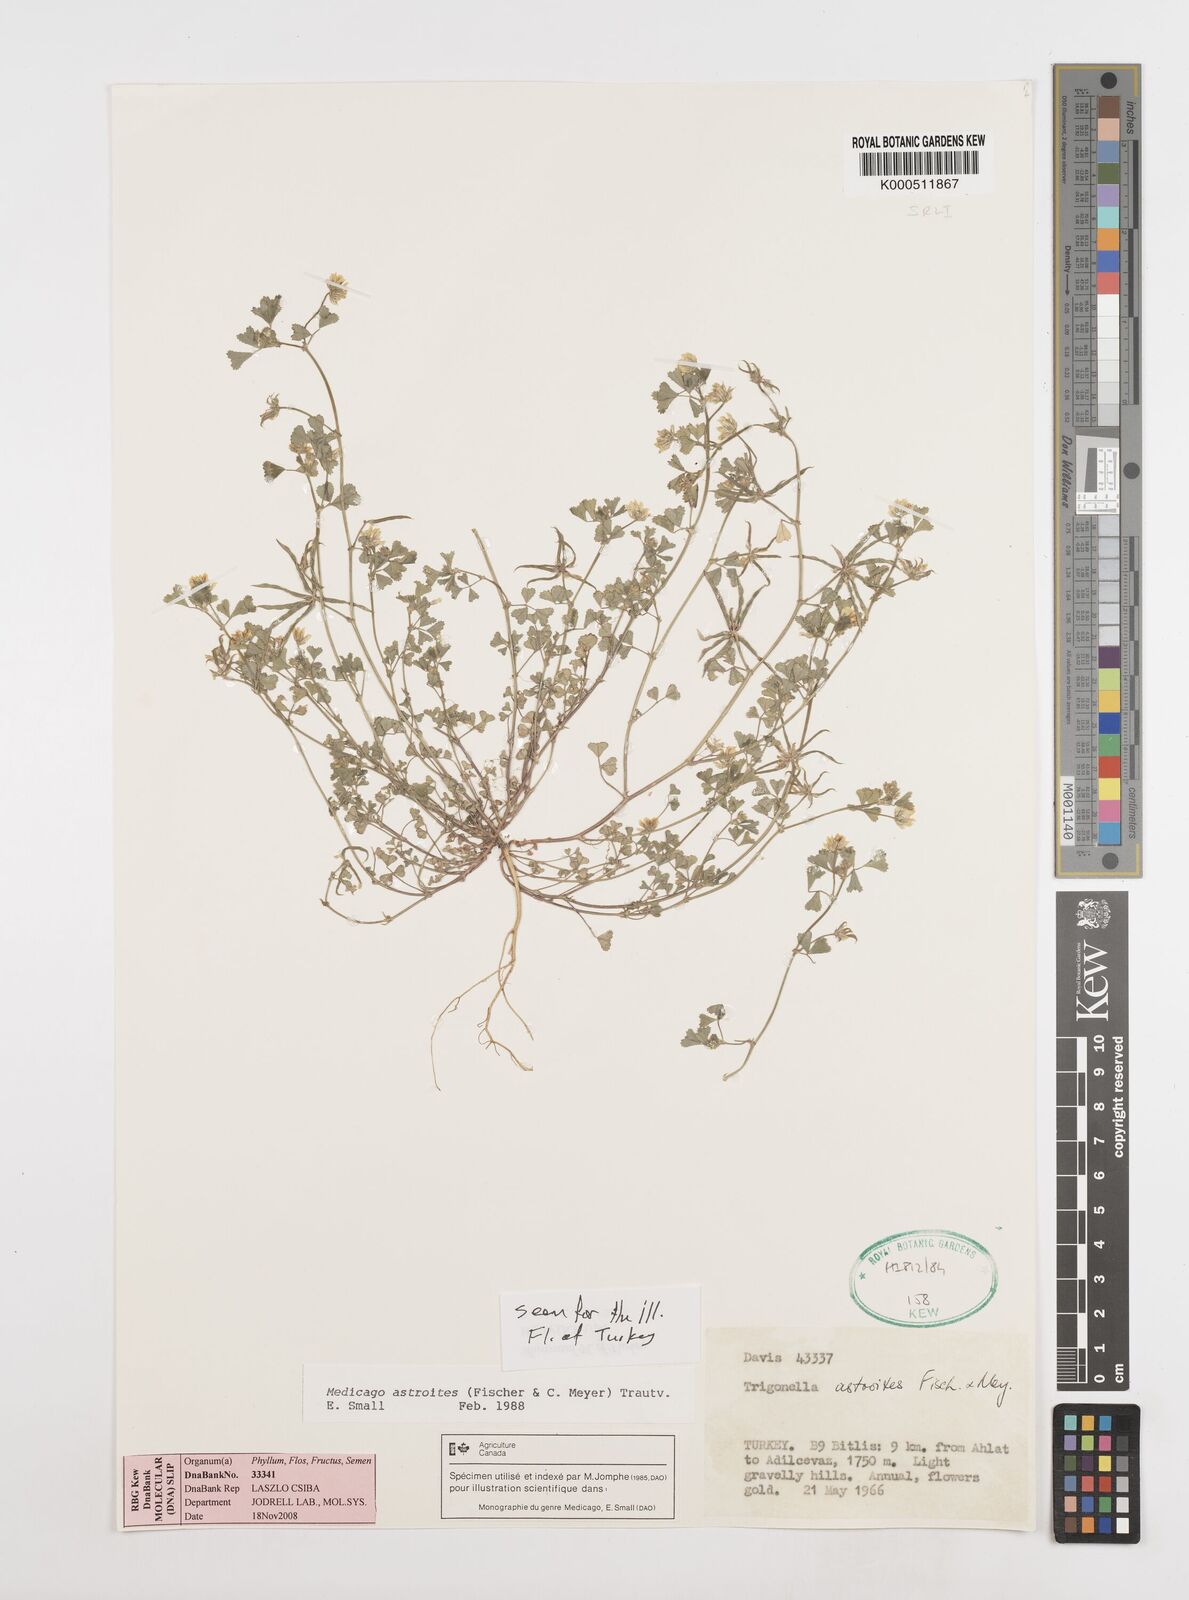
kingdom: Plantae
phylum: Tracheophyta
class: Magnoliopsida
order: Fabales
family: Fabaceae
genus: Medicago
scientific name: Medicago astroites
